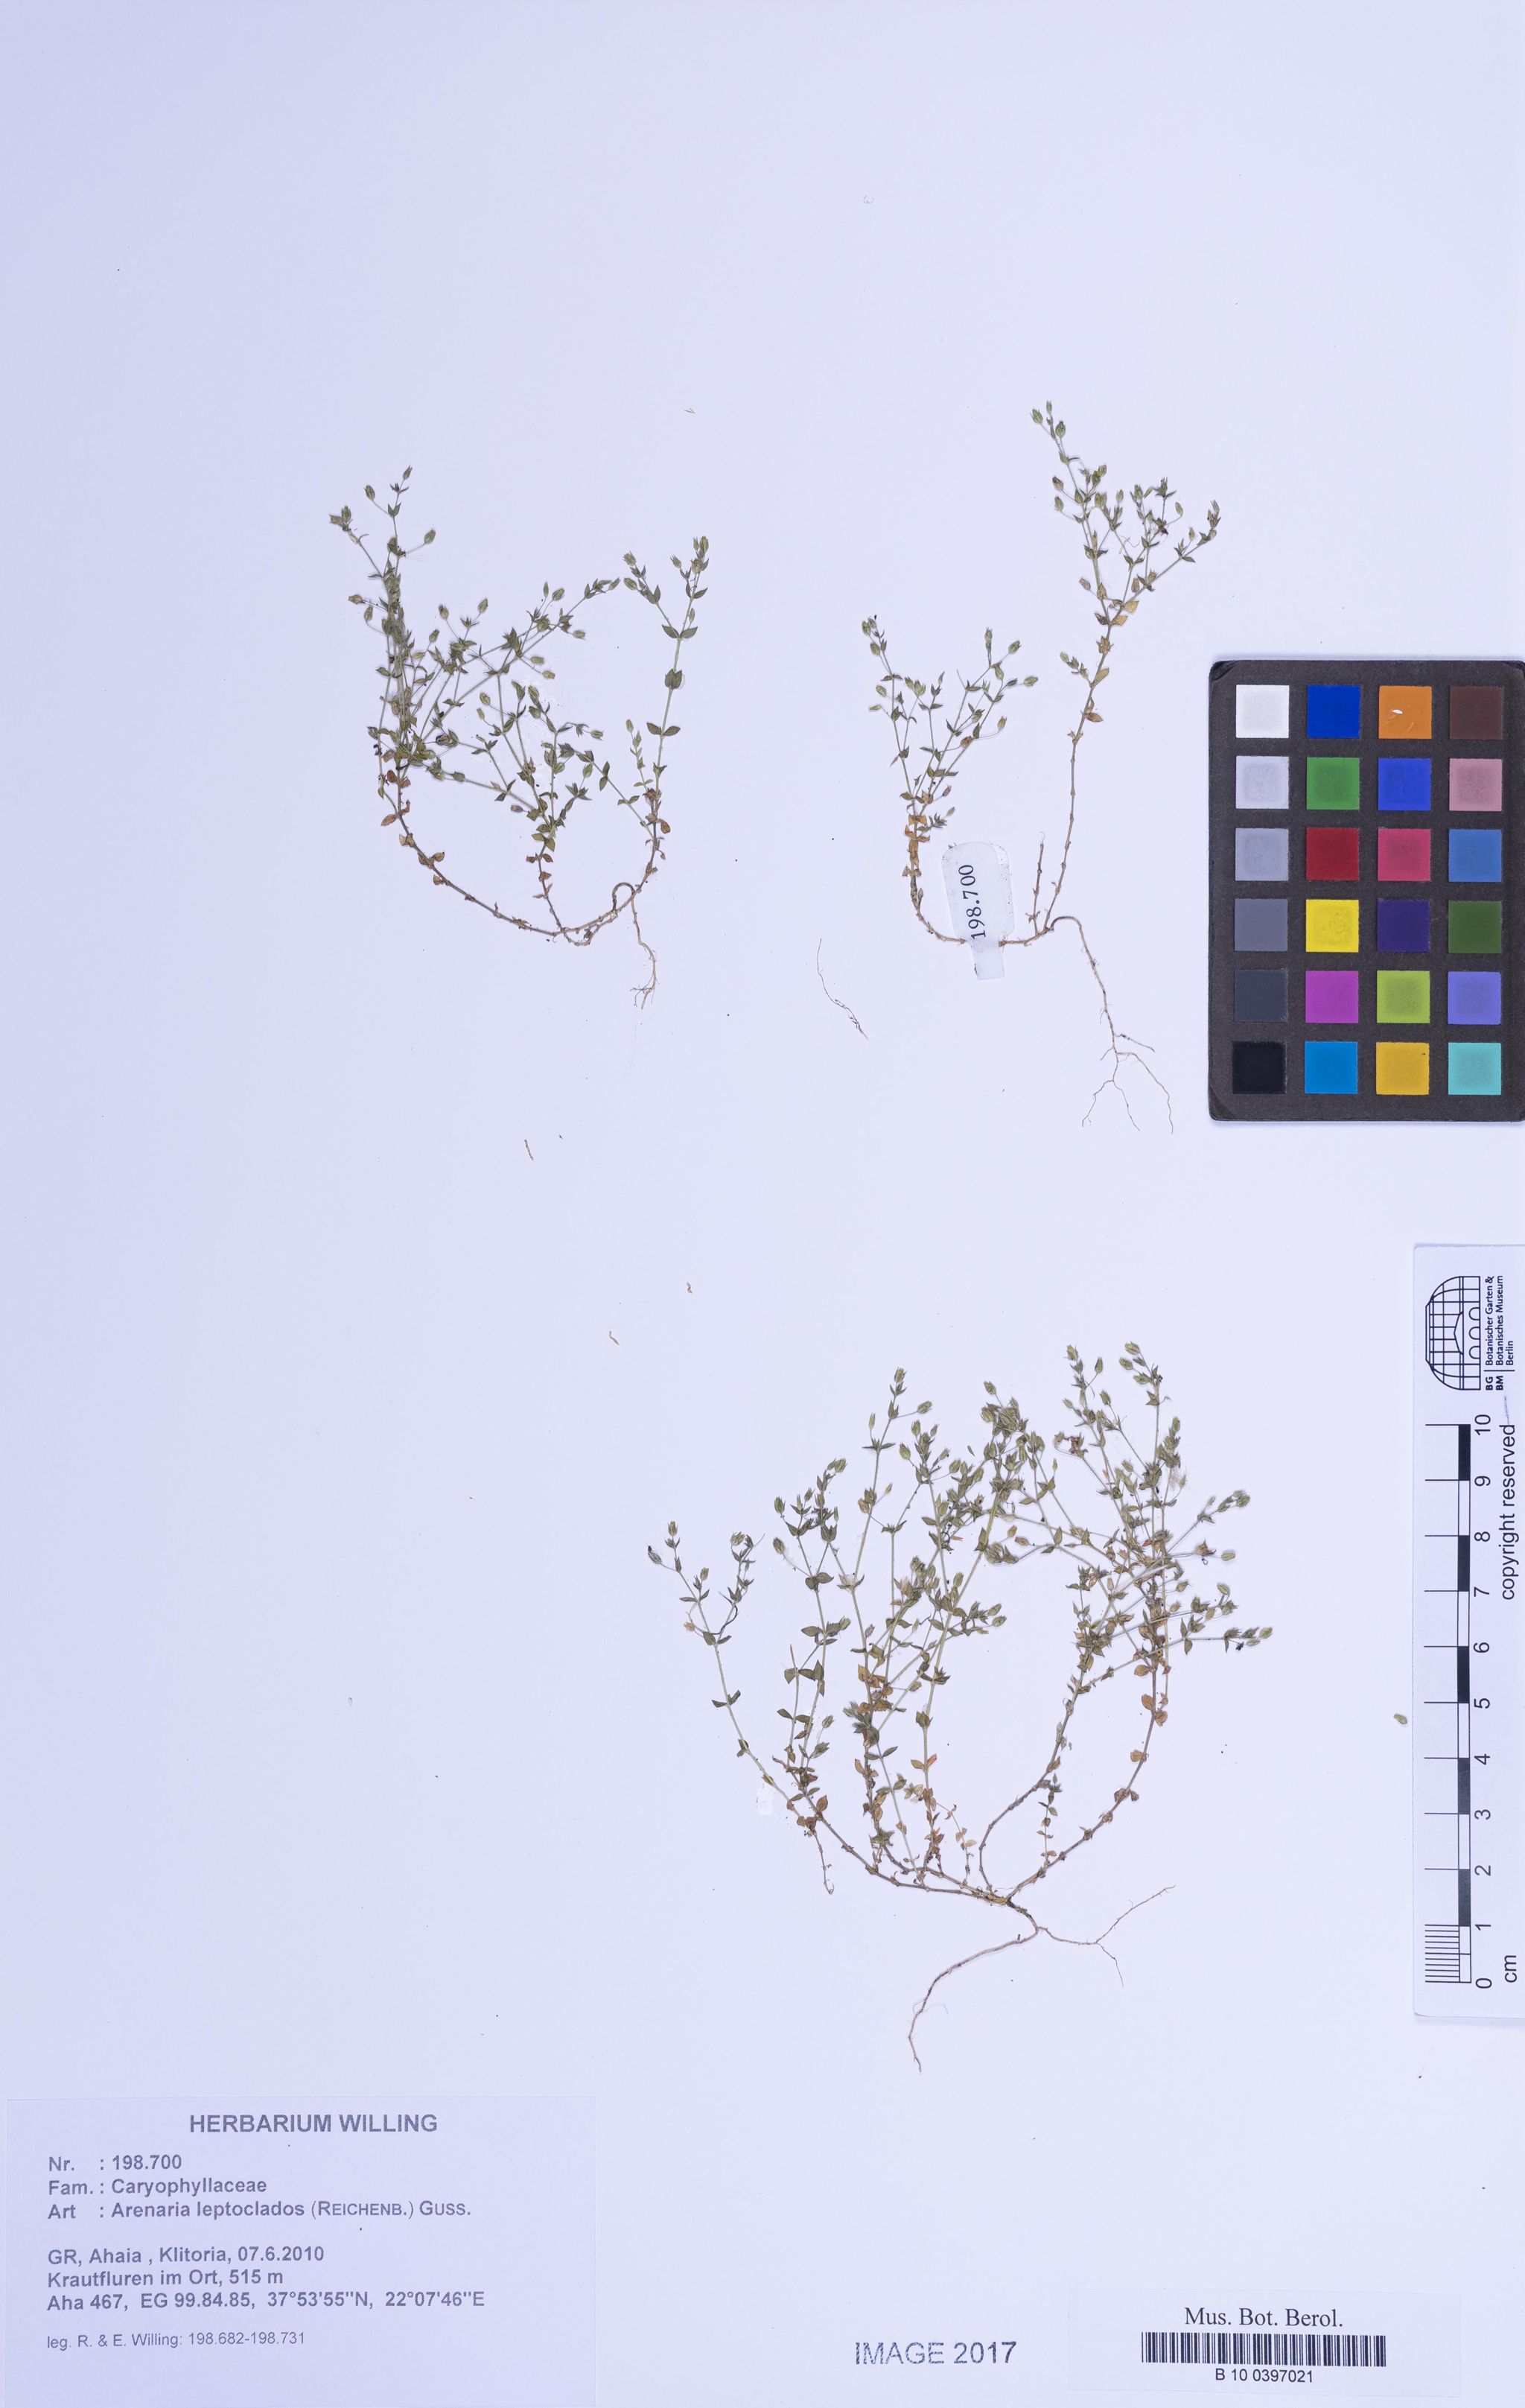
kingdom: Plantae
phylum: Tracheophyta
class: Magnoliopsida
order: Caryophyllales
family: Caryophyllaceae
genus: Arenaria
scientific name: Arenaria leptoclados
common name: Thyme-leaved sandwort
